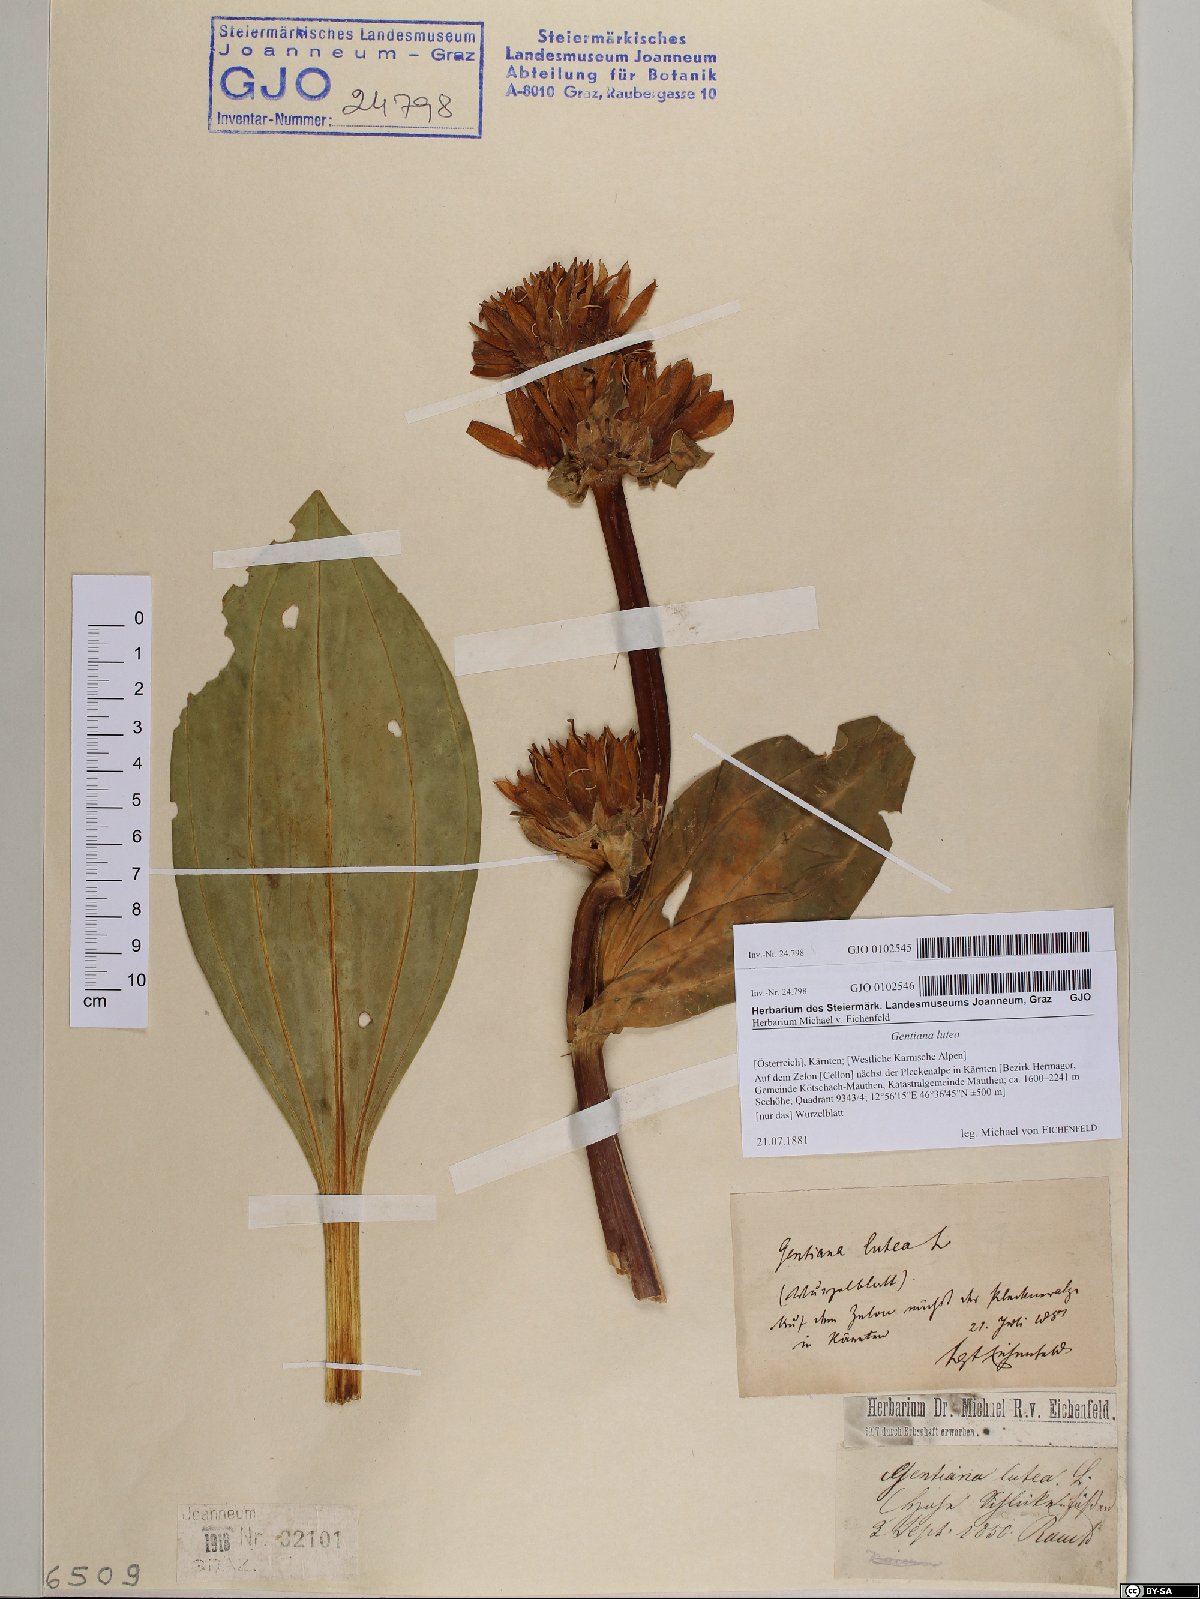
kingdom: Plantae
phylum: Tracheophyta
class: Magnoliopsida
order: Gentianales
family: Gentianaceae
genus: Gentiana
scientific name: Gentiana lutea
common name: Great yellow gentian
